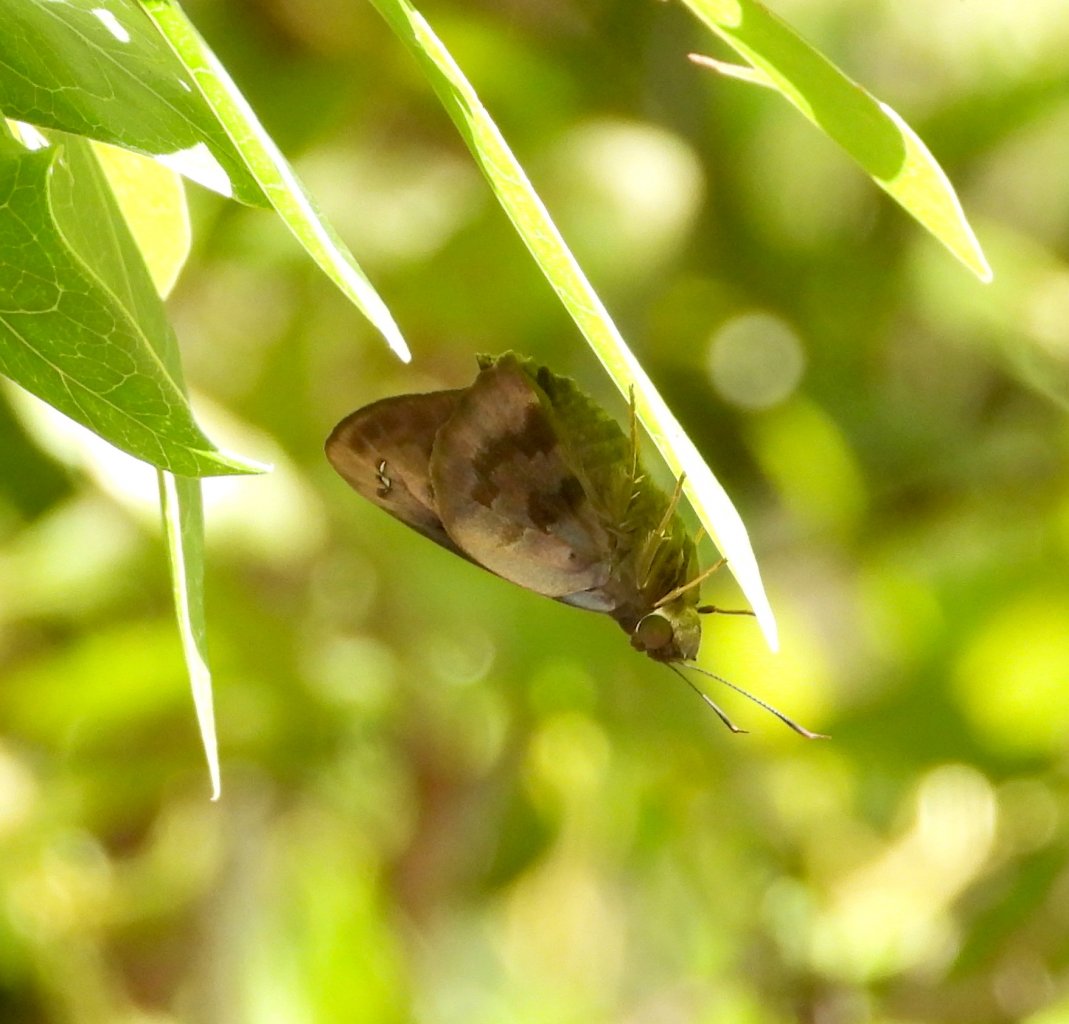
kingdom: Animalia
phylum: Arthropoda
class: Insecta
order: Lepidoptera
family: Hesperiidae
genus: Polygonus
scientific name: Polygonus leo
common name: Hammock Skipper
